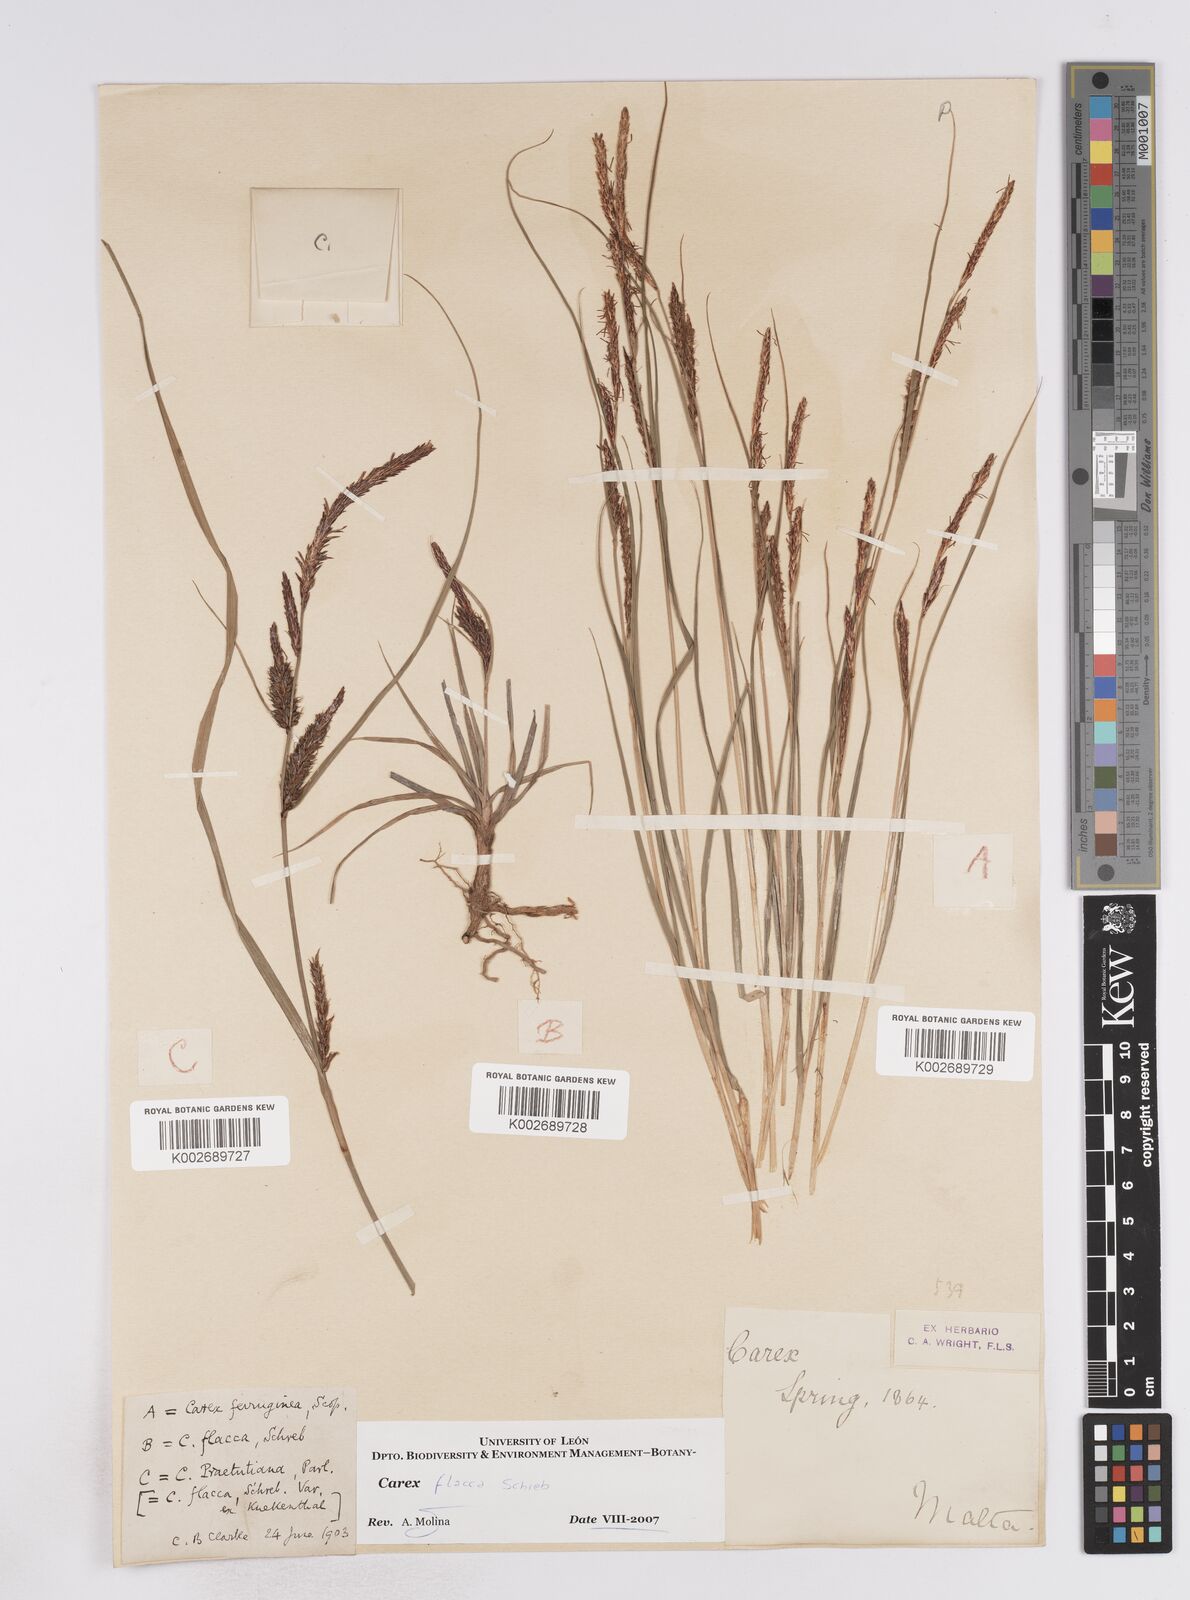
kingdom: Plantae
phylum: Tracheophyta
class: Liliopsida
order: Poales
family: Cyperaceae
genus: Carex
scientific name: Carex flacca
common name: Glaucous sedge
